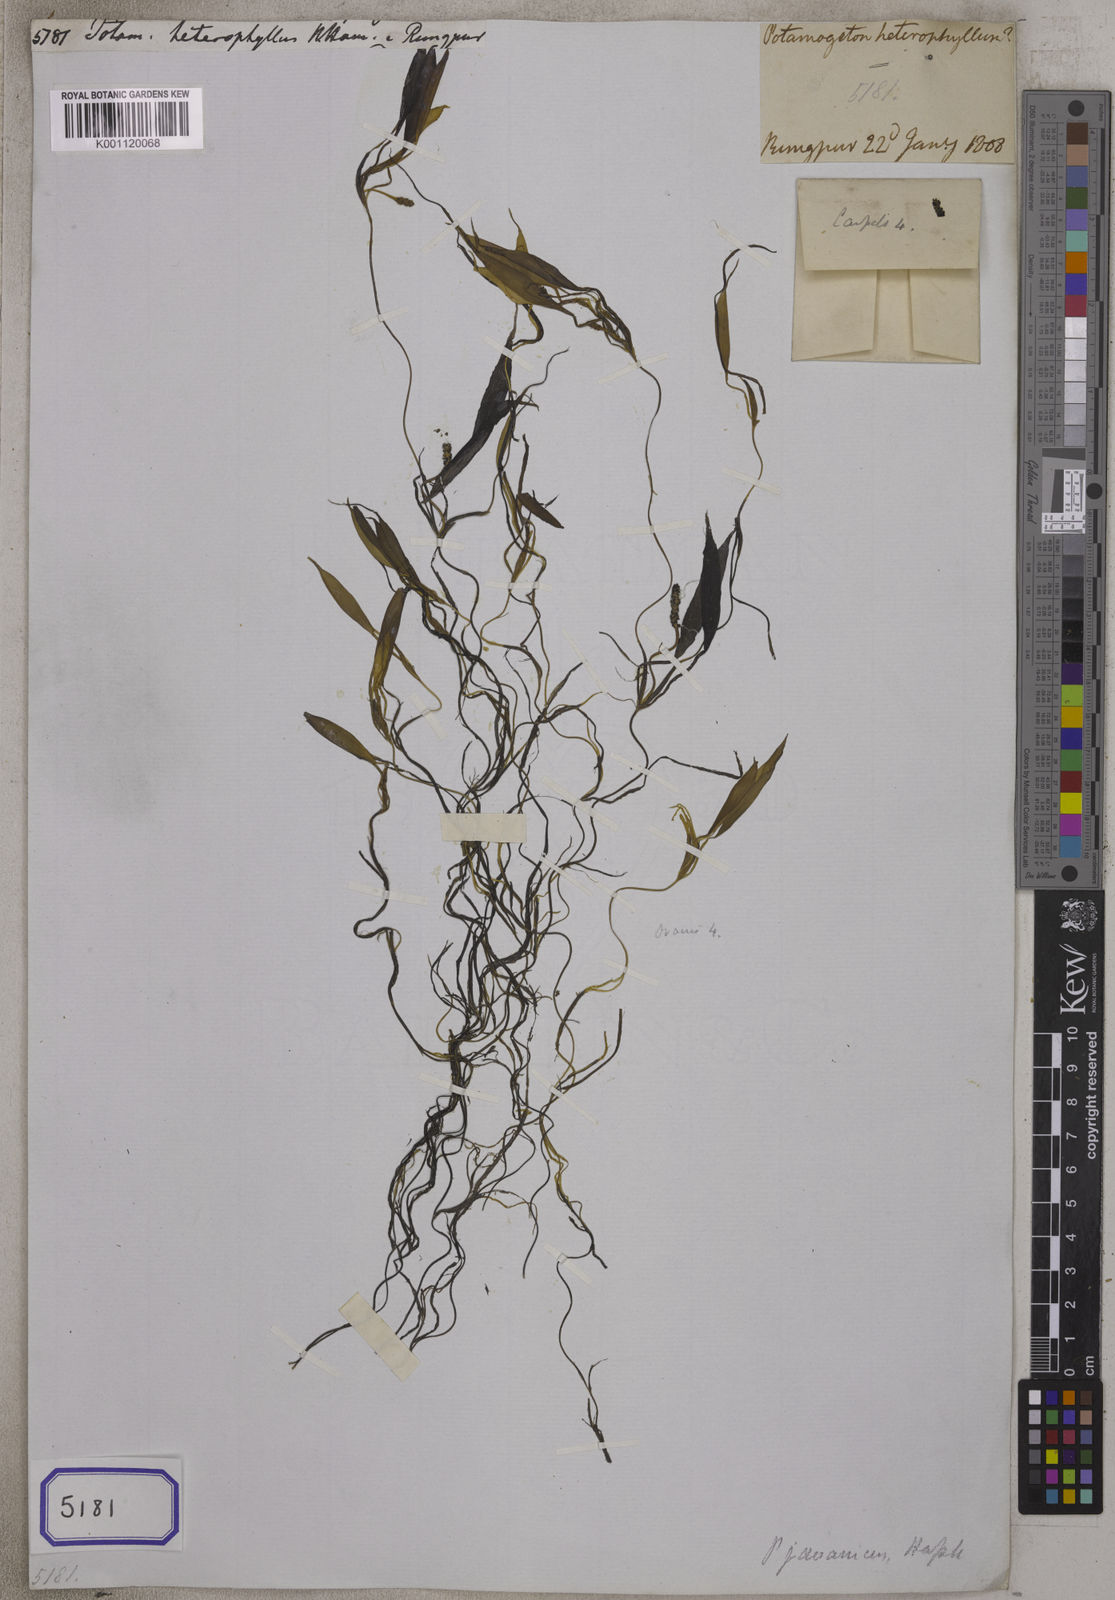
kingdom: Plantae
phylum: Tracheophyta
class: Liliopsida
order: Alismatales
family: Potamogetonaceae
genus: Potamogeton
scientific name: Potamogeton
